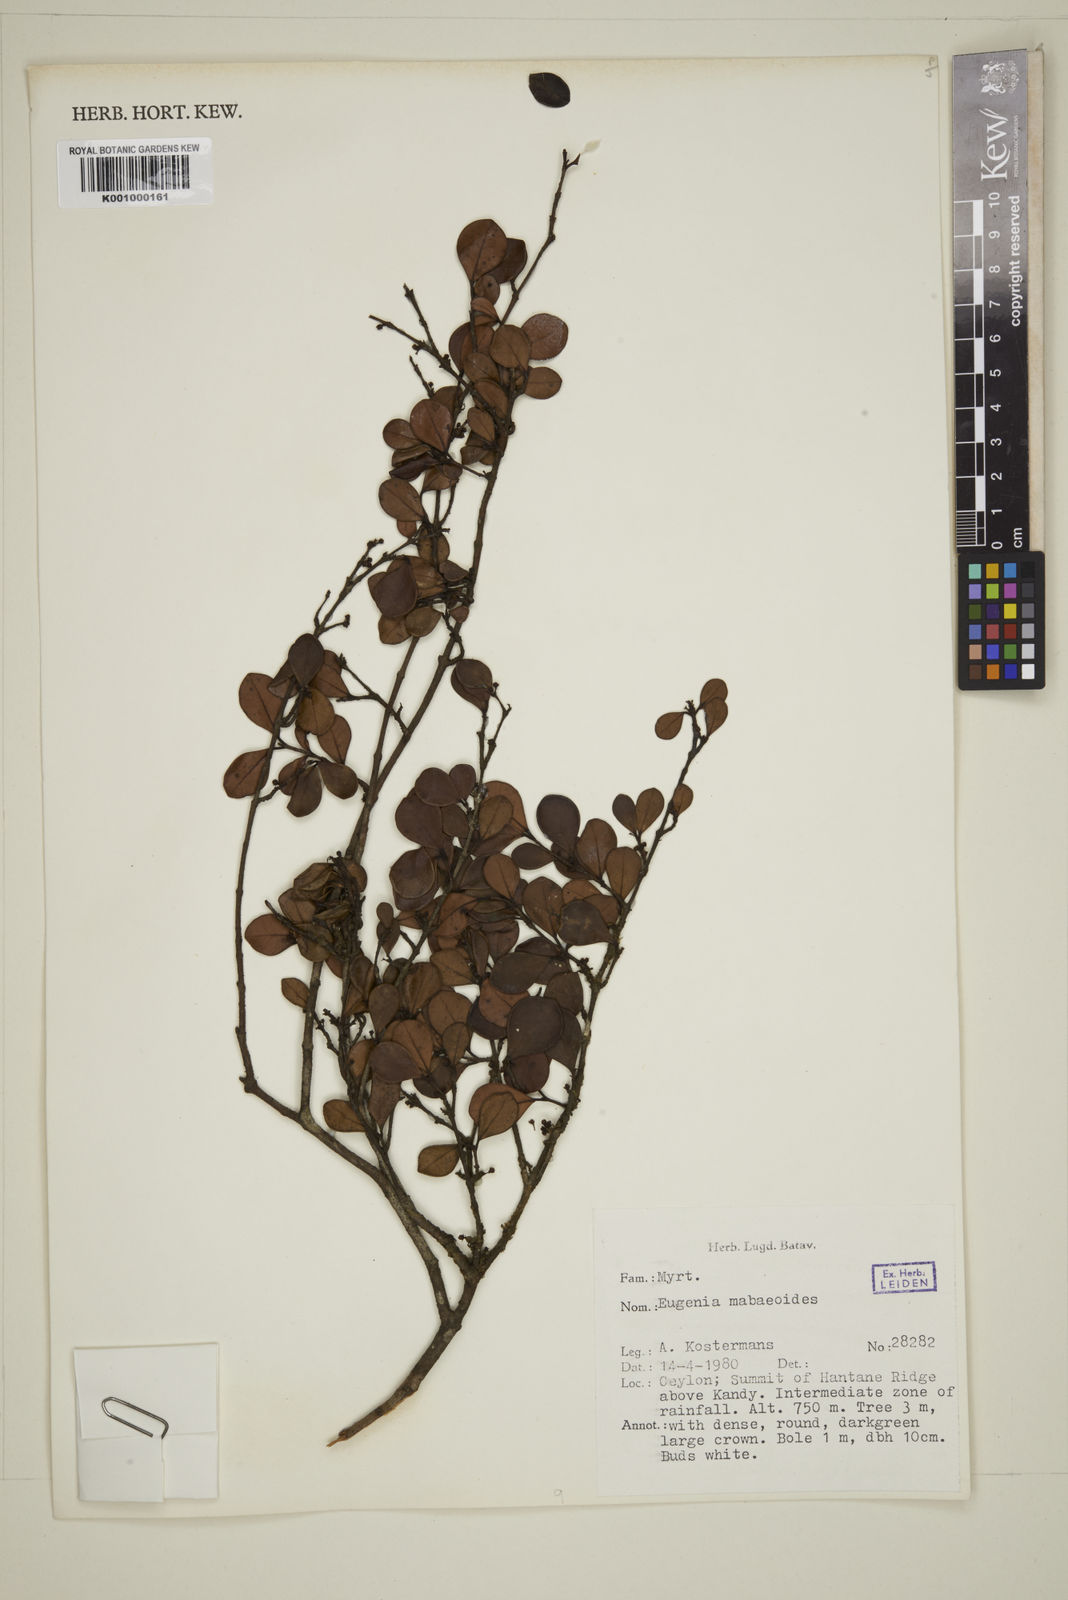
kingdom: Plantae
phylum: Tracheophyta
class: Magnoliopsida
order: Myrtales
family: Myrtaceae
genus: Eugenia
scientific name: Eugenia mabaeoides
